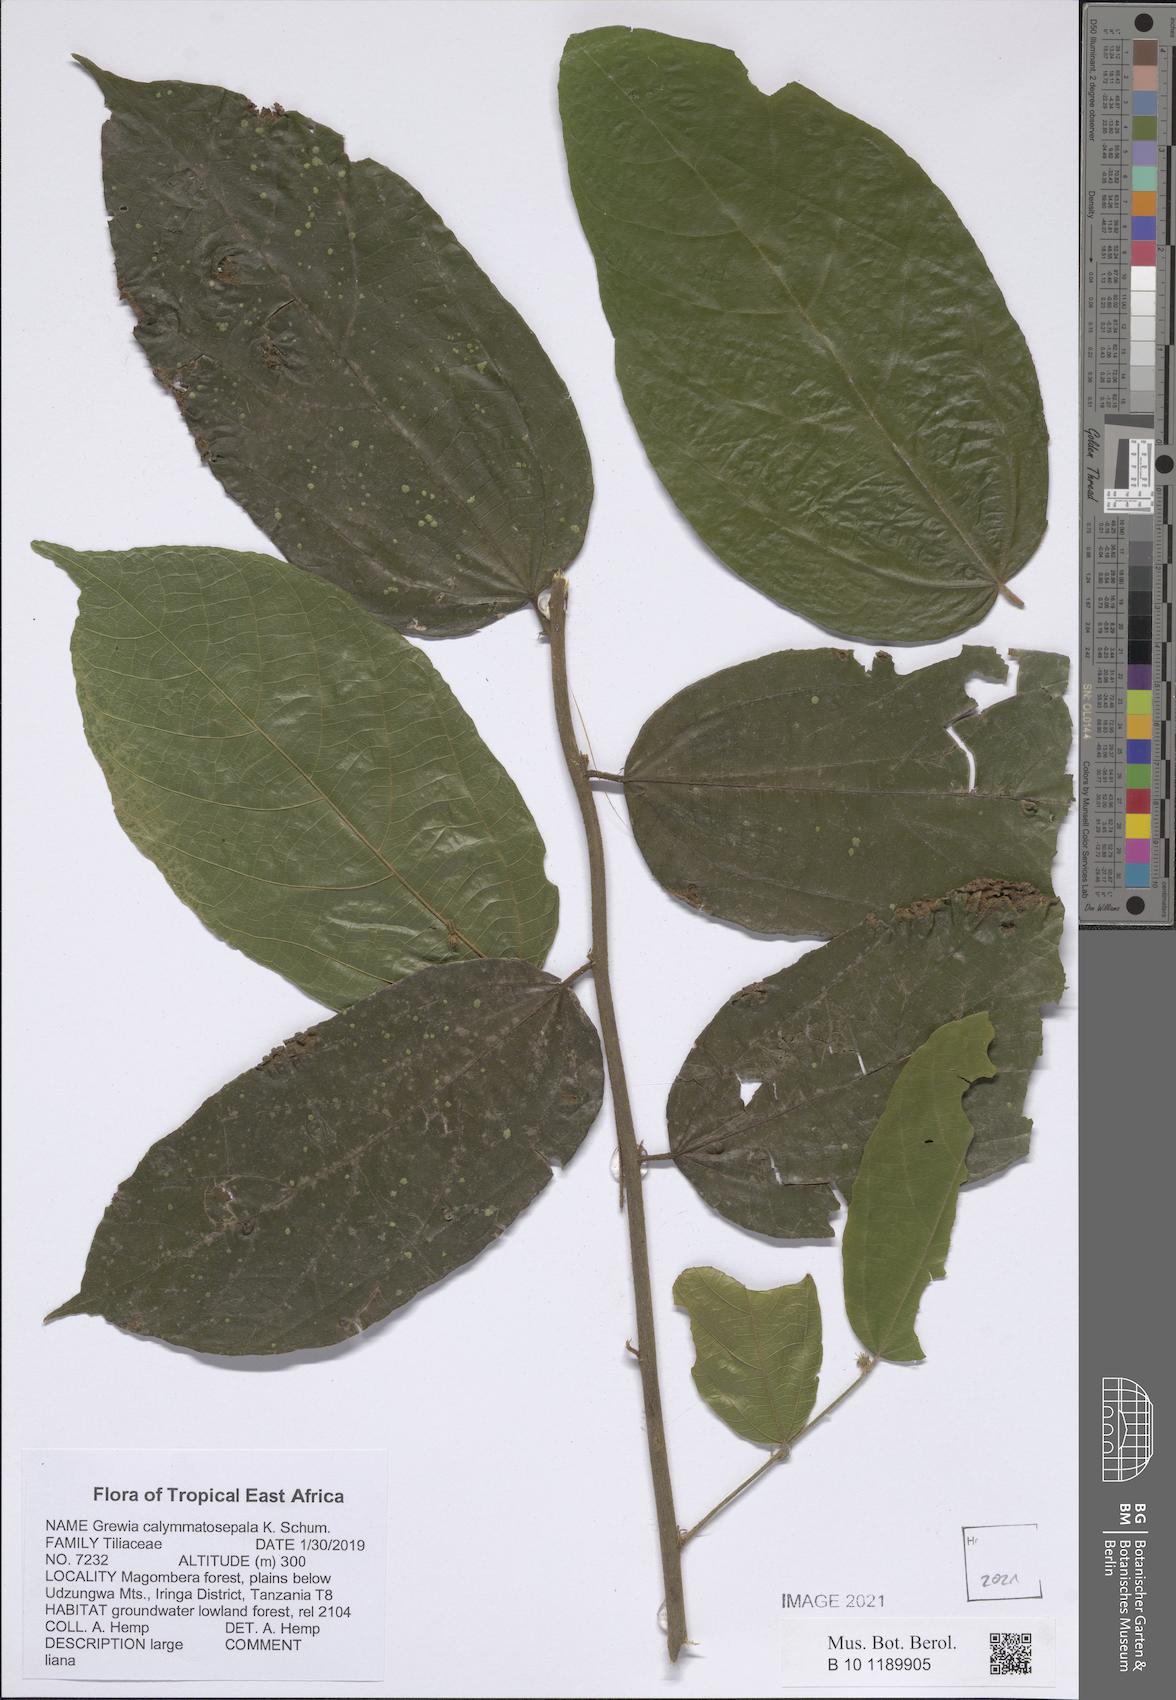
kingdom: Plantae
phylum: Tracheophyta
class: Magnoliopsida
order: Malvales
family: Malvaceae
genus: Microcos
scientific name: Microcos calymmatosepala
